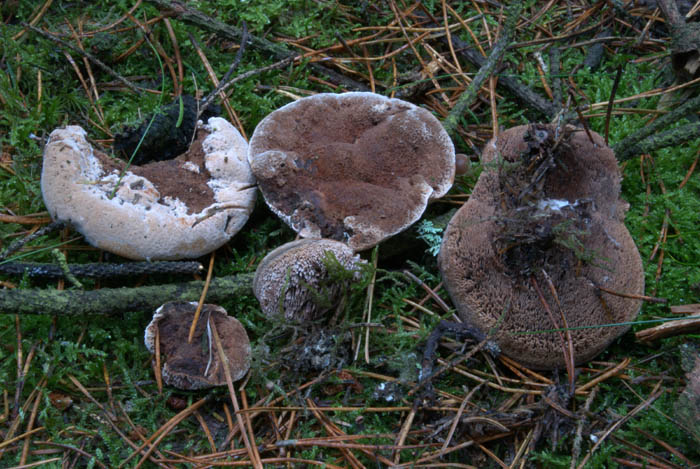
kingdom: Fungi
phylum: Basidiomycota
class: Agaricomycetes
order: Thelephorales
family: Bankeraceae
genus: Hydnellum
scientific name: Hydnellum ferrugineum
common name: rust-korkpigsvamp
